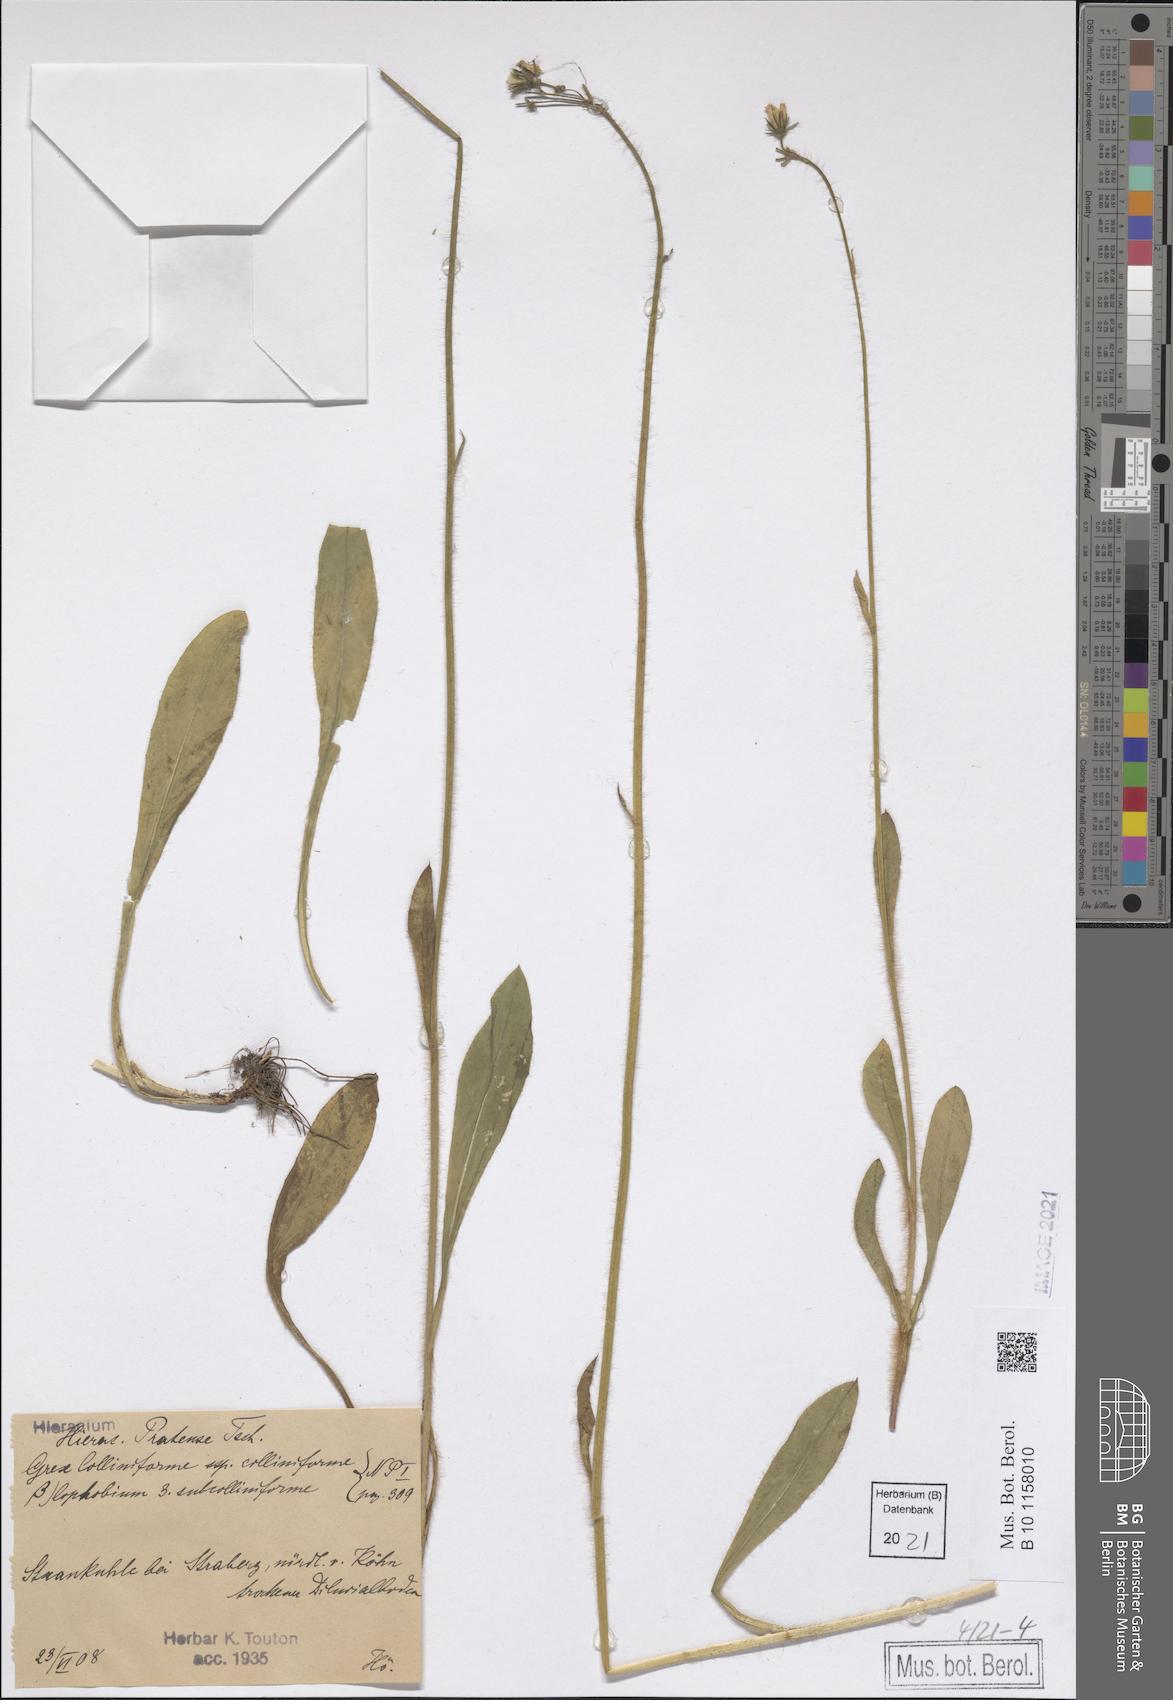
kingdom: Plantae
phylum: Tracheophyta
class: Magnoliopsida
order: Asterales
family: Asteraceae
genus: Pilosella
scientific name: Pilosella caespitosa
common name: Yellow fox-and-cubs
